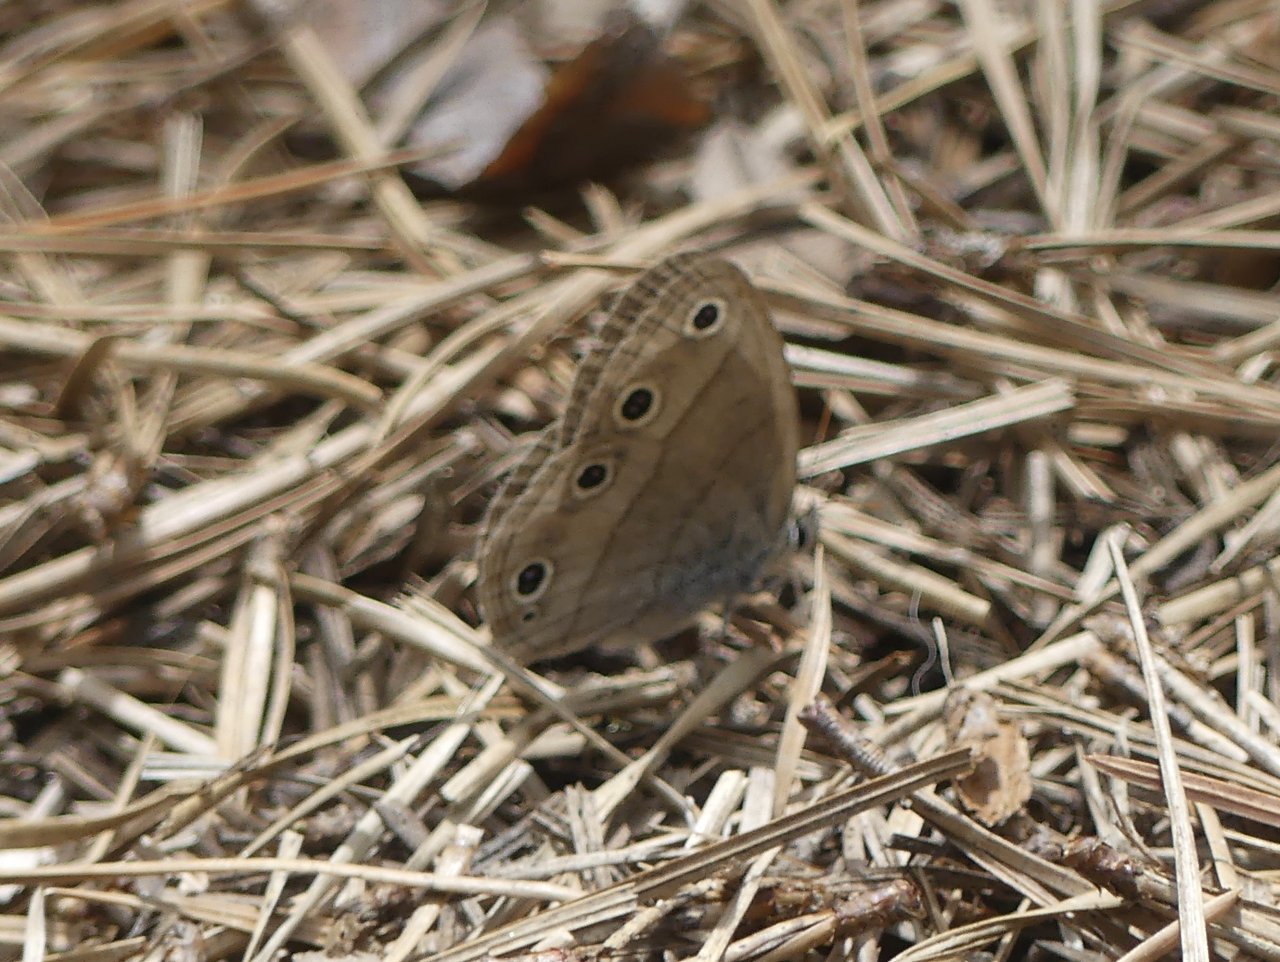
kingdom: Animalia
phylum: Arthropoda
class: Insecta
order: Lepidoptera
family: Nymphalidae
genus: Euptychia
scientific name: Euptychia cymela
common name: Little Wood Satyr
